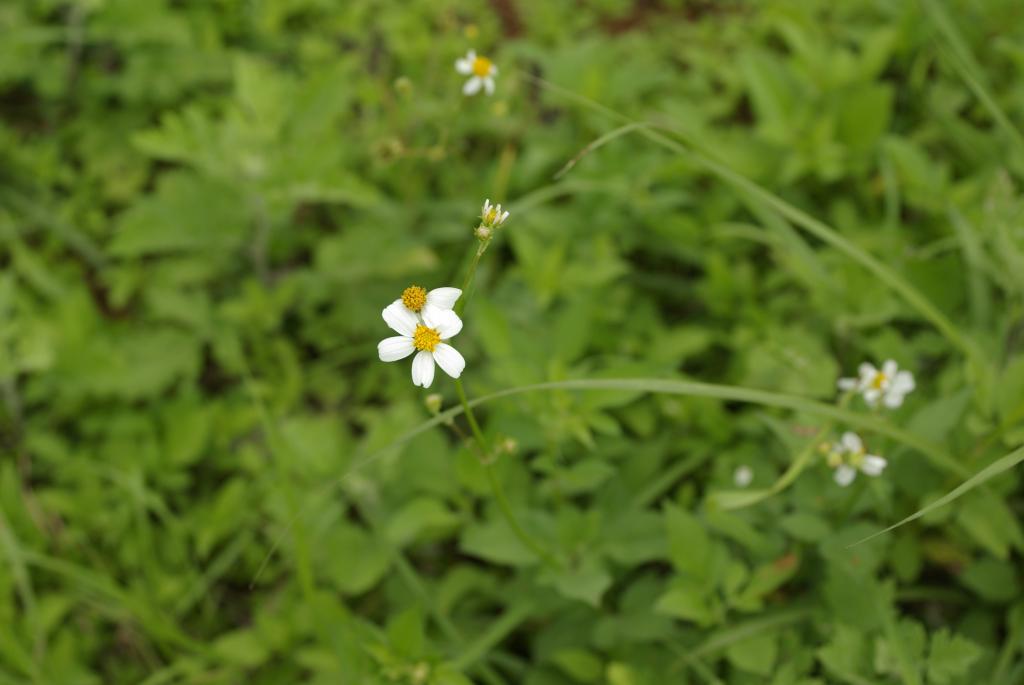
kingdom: Plantae
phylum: Tracheophyta
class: Magnoliopsida
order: Asterales
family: Asteraceae
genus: Bidens
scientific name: Bidens pilosa
